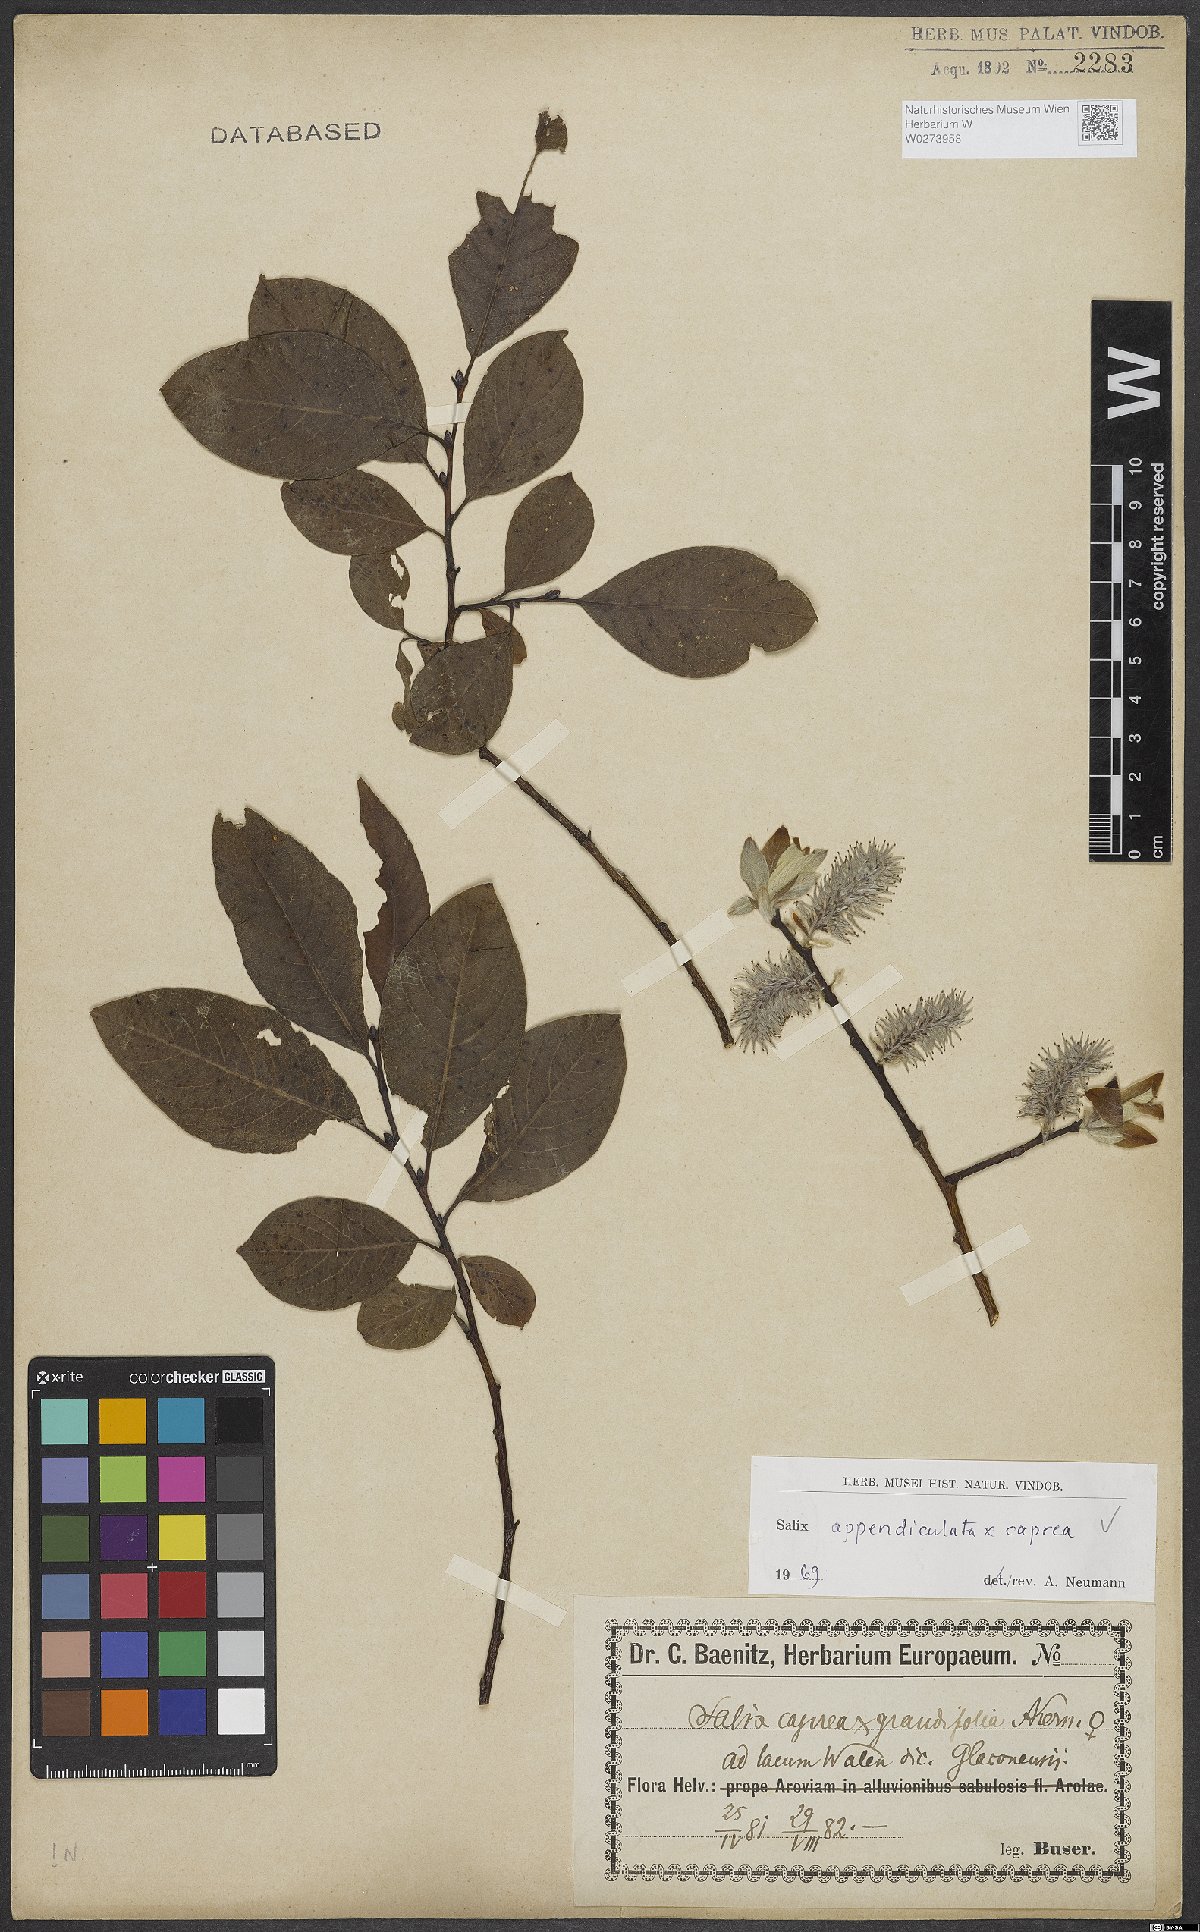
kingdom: Plantae
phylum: Tracheophyta
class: Magnoliopsida
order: Malpighiales
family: Salicaceae
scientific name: Salicaceae
